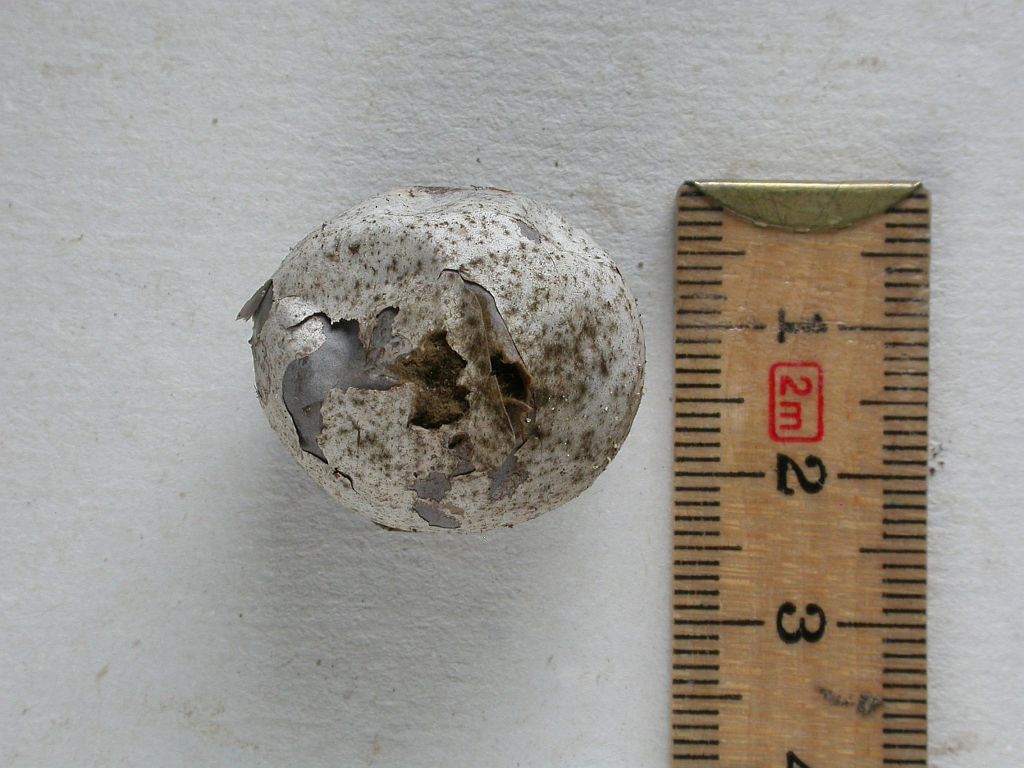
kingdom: Fungi
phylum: Basidiomycota
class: Agaricomycetes
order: Agaricales
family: Lycoperdaceae
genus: Bovista
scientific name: Bovista plumbea
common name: blygrå bovist
